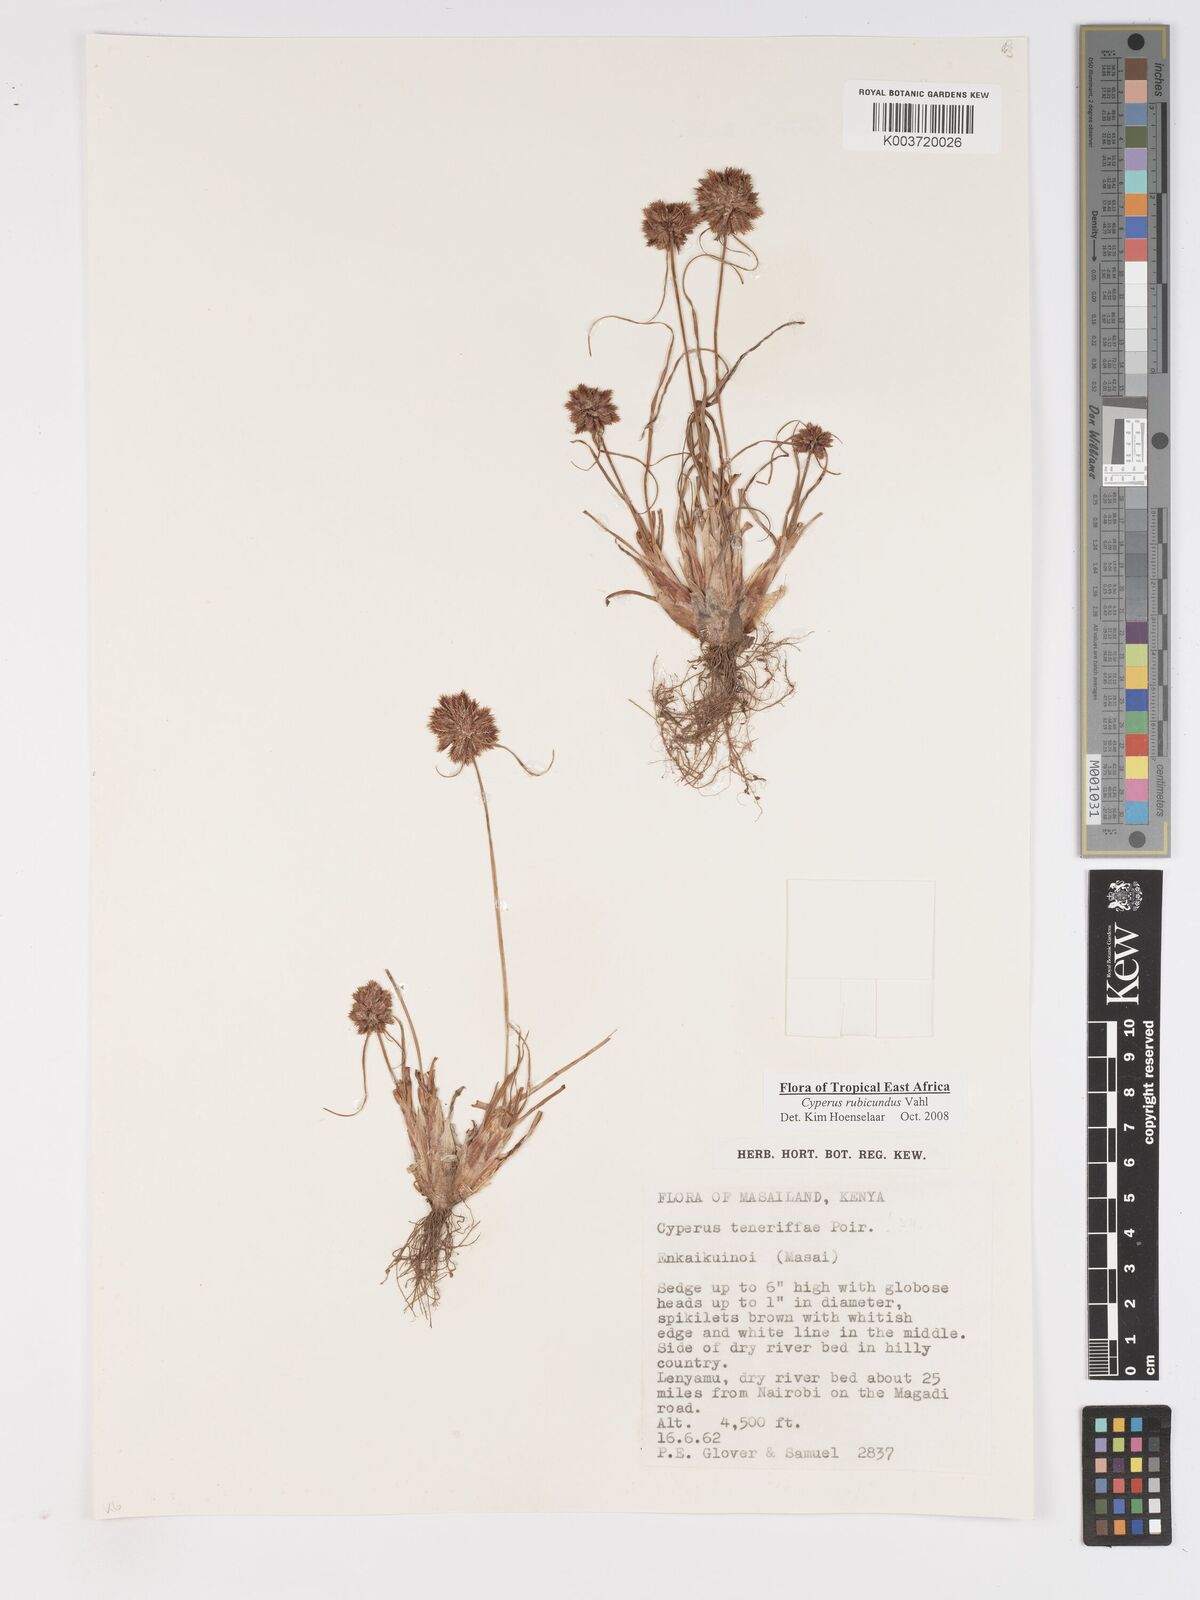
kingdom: Plantae
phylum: Tracheophyta
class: Liliopsida
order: Poales
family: Cyperaceae
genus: Cyperus
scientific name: Cyperus rubicundus
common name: Coco-grass
